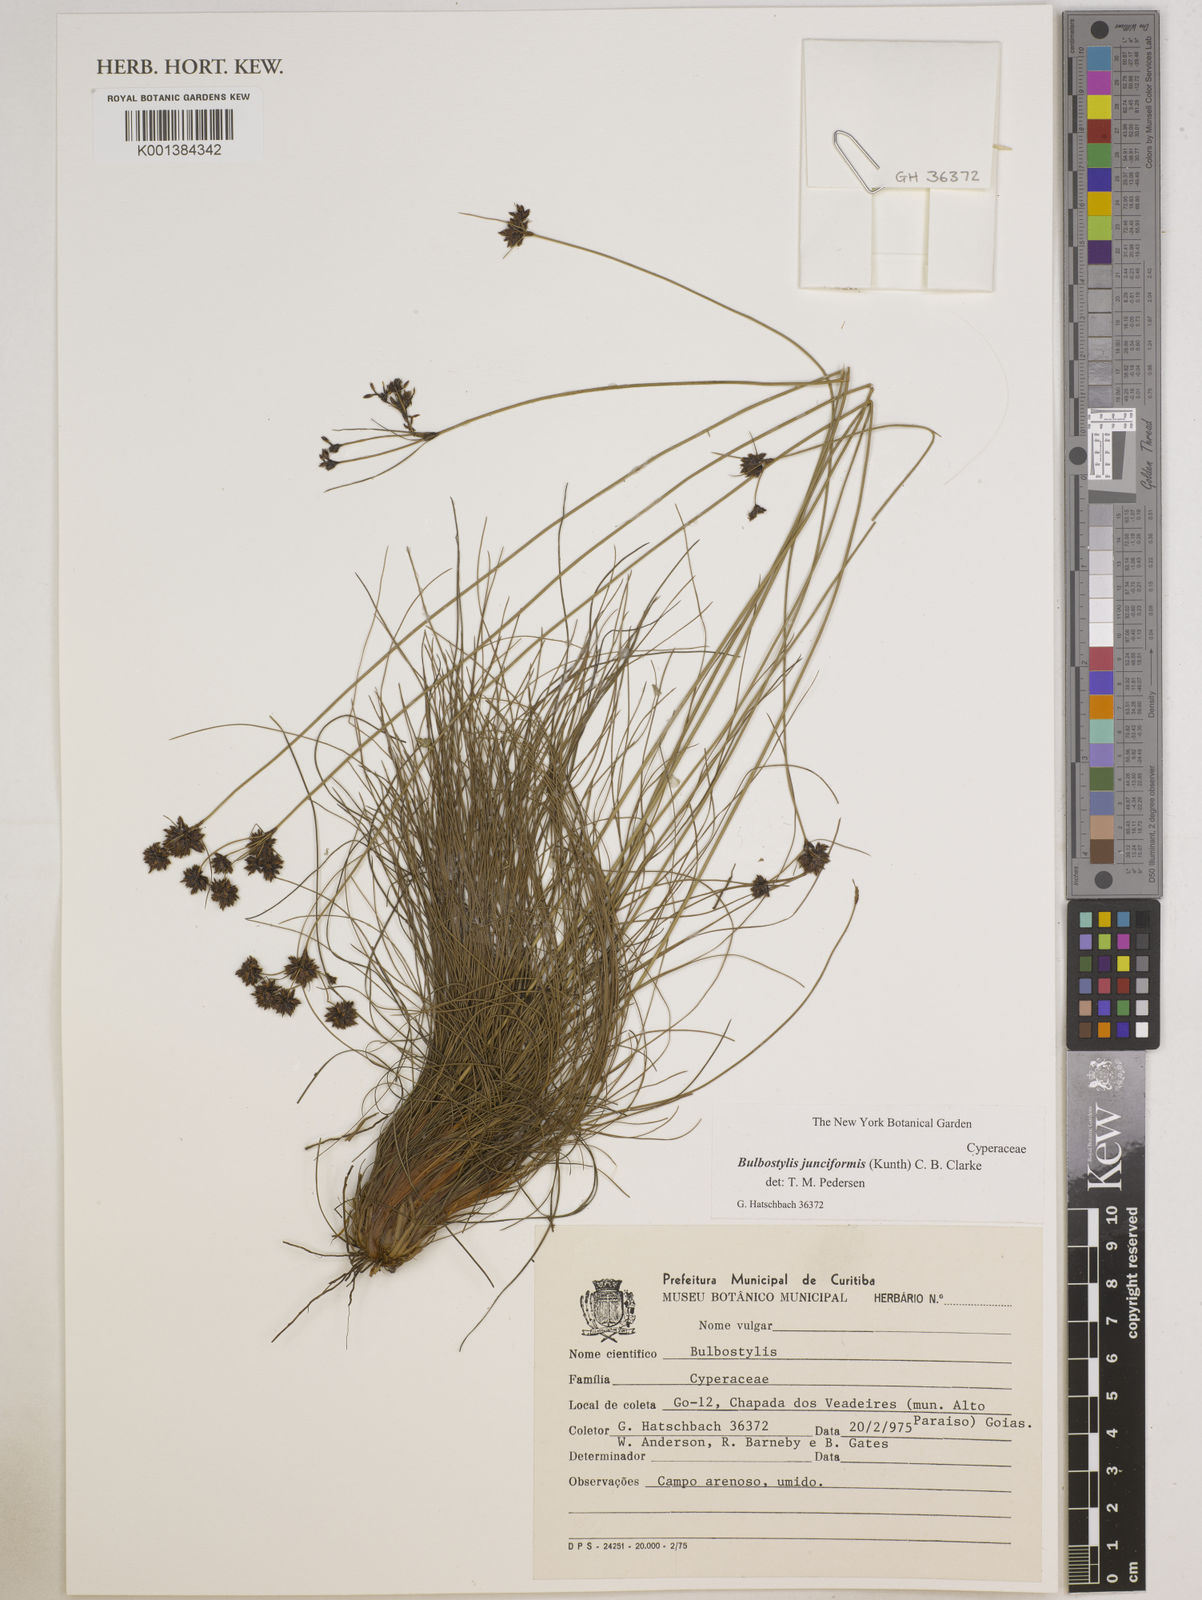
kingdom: Plantae
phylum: Tracheophyta
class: Liliopsida
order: Poales
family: Cyperaceae
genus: Bulbostylis
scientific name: Bulbostylis junciformis
